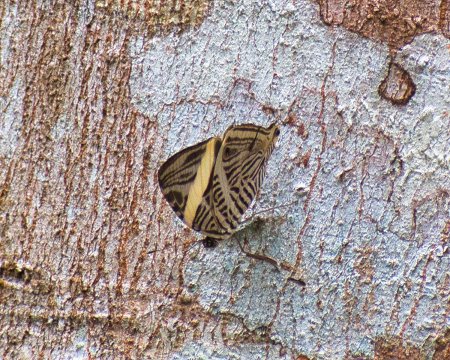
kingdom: Animalia
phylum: Arthropoda
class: Insecta
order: Lepidoptera
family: Nymphalidae
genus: Colobura
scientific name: Colobura dirce
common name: Dirce Beauty
